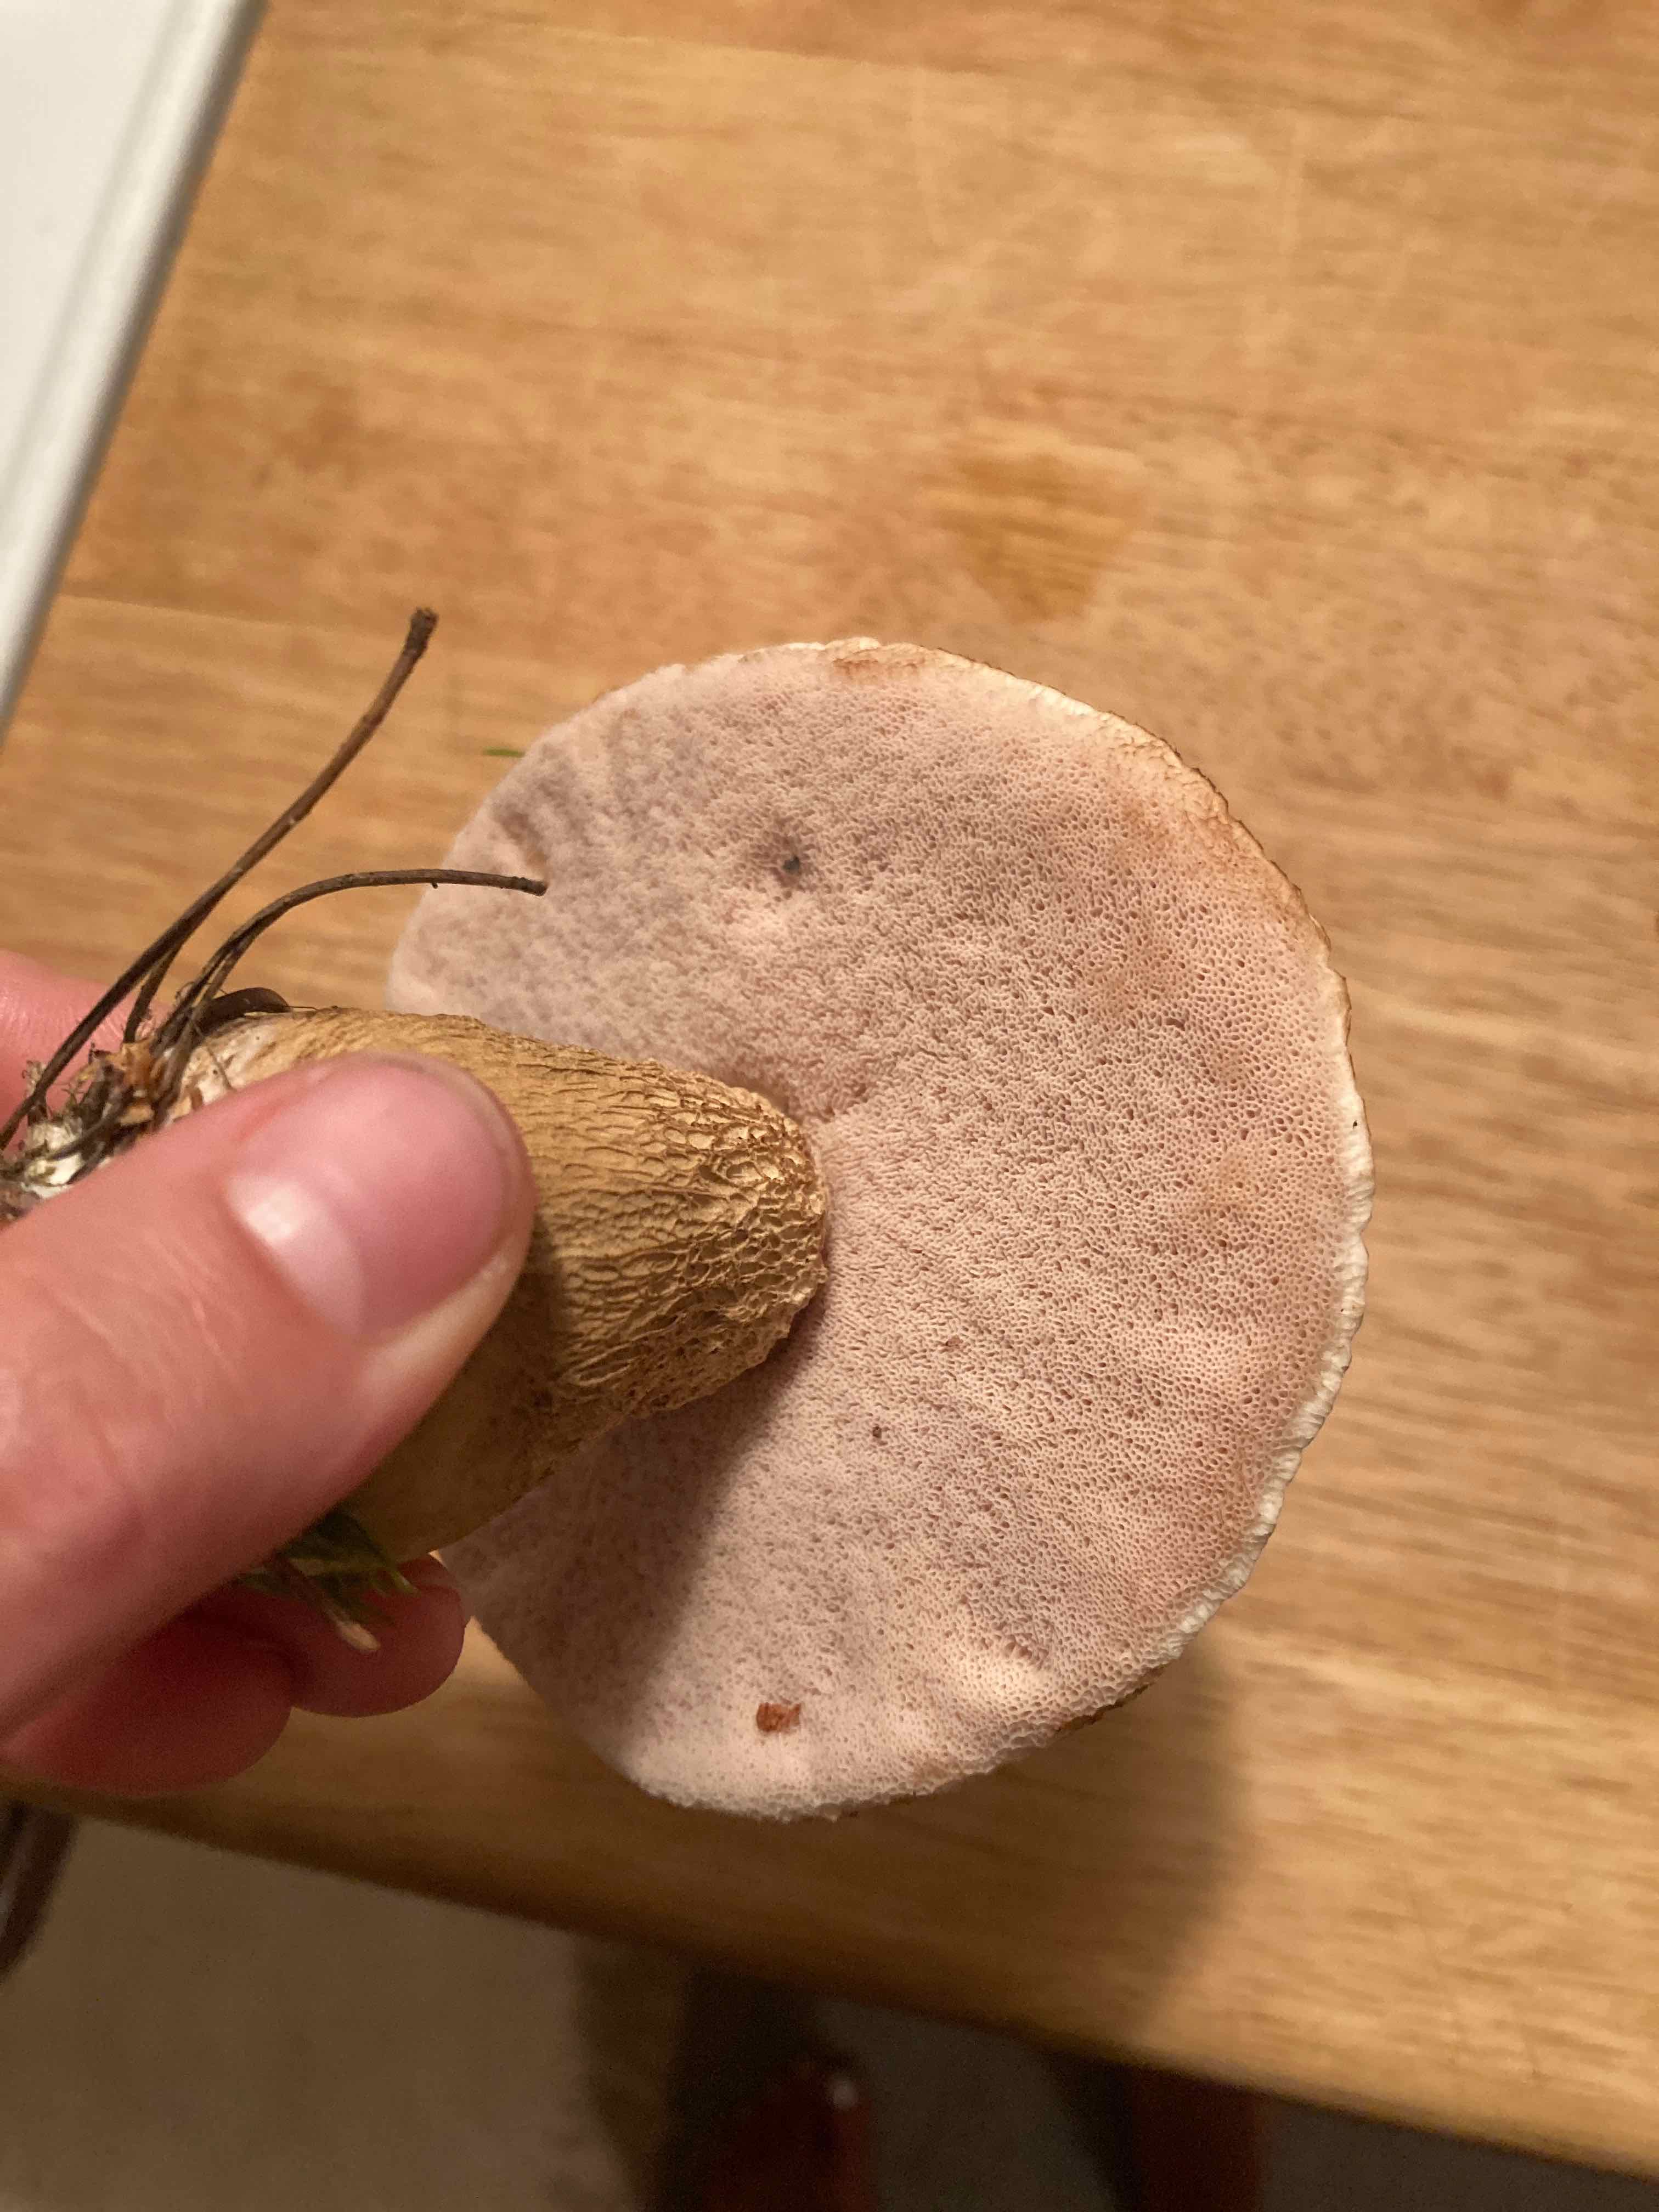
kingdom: Fungi
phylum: Basidiomycota
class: Agaricomycetes
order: Boletales
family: Boletaceae
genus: Tylopilus
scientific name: Tylopilus felleus
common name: galderørhat
